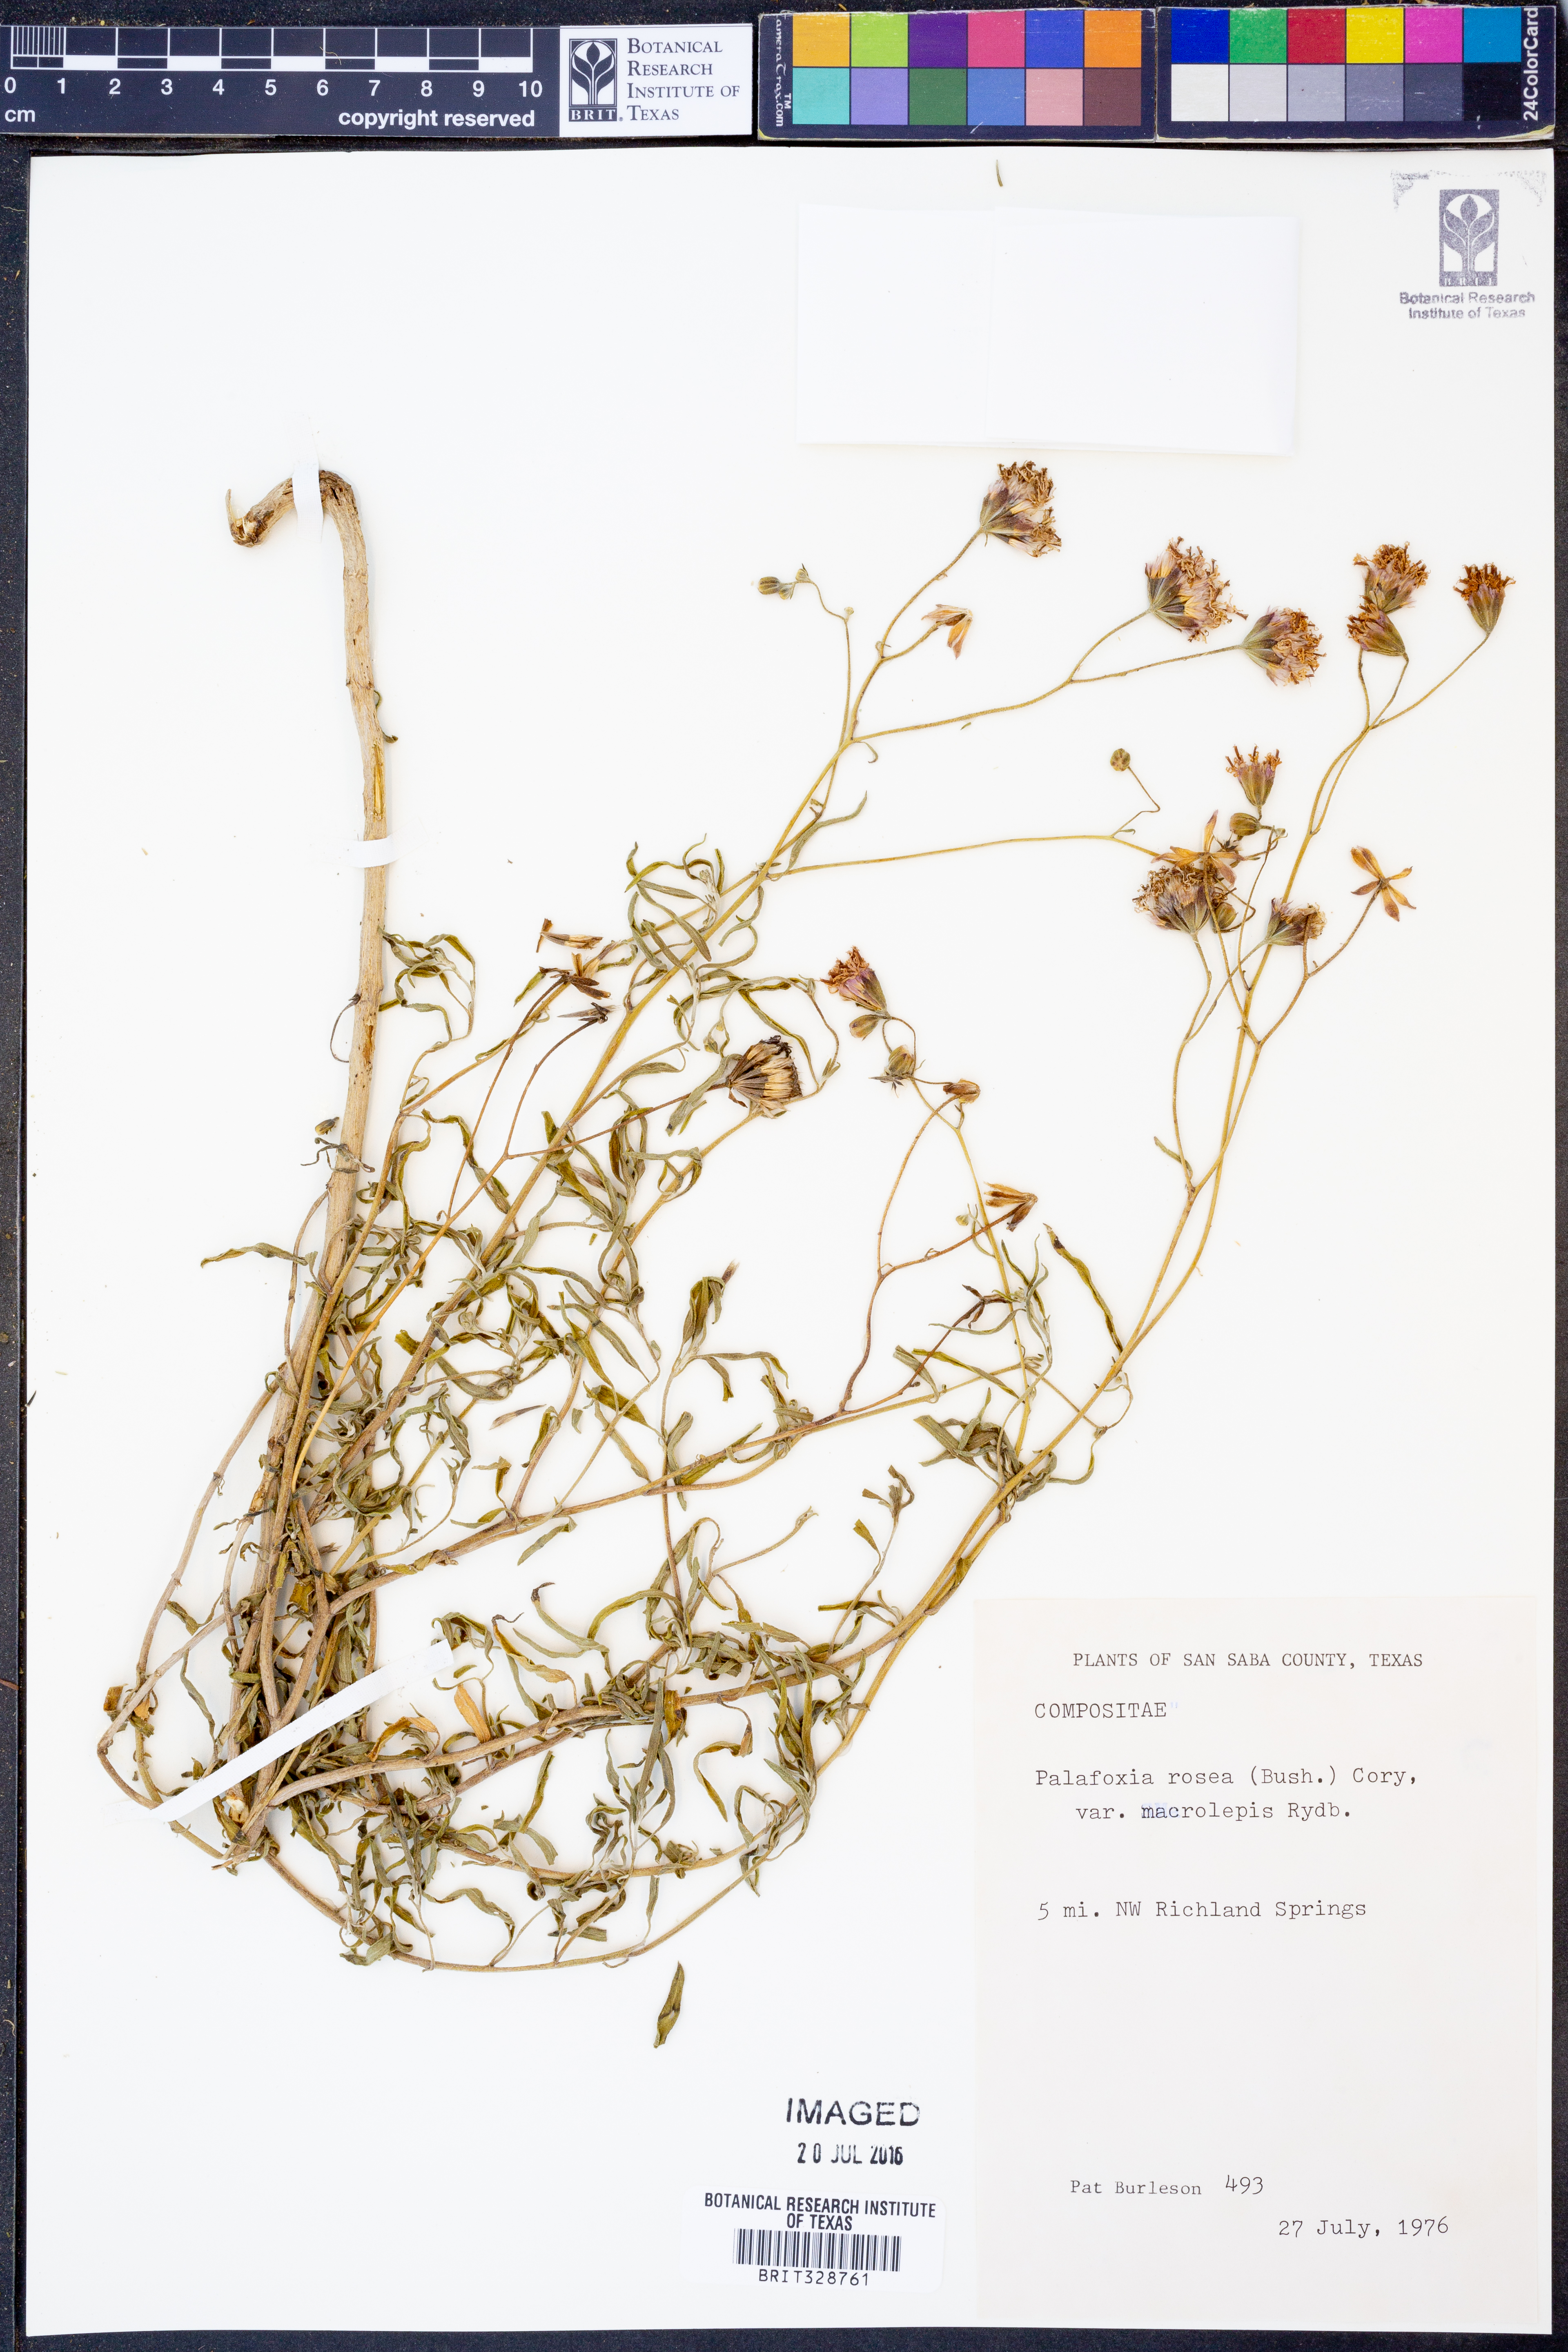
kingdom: Plantae
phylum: Tracheophyta
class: Magnoliopsida
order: Asterales
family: Asteraceae
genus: Palafoxia
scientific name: Palafoxia rosea
